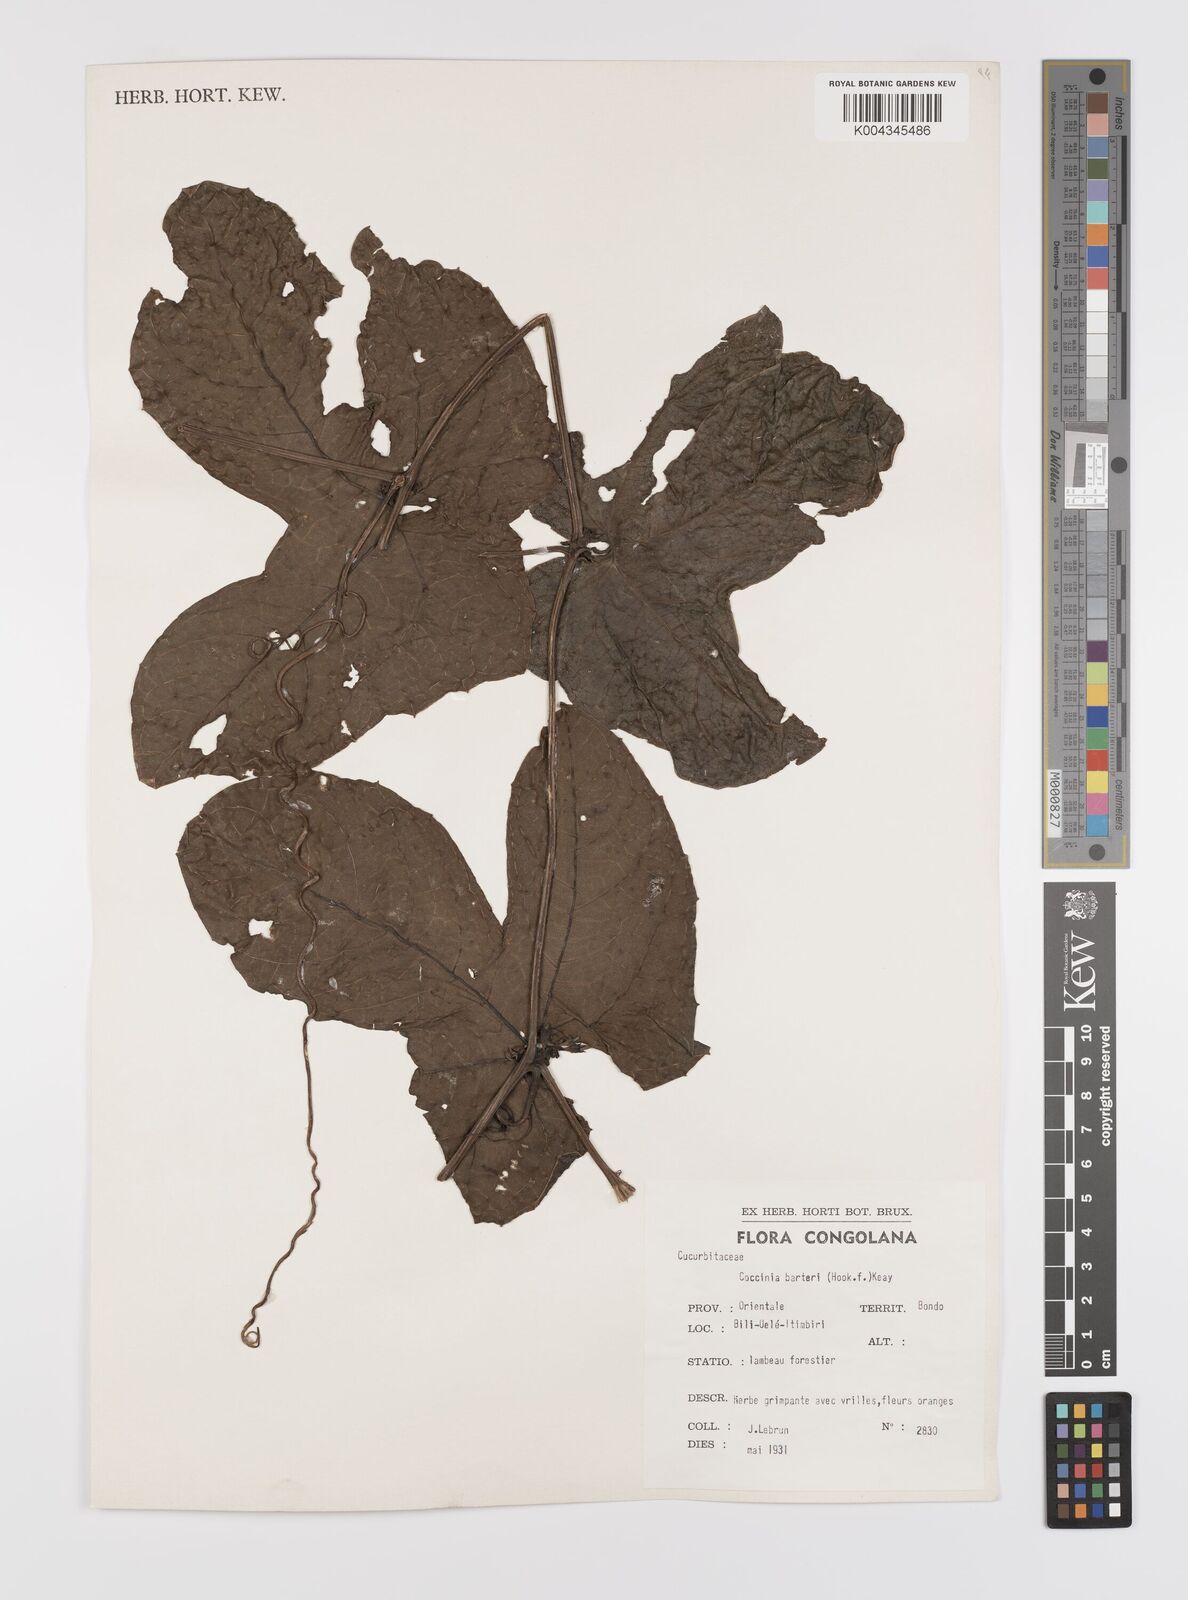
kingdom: Plantae
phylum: Tracheophyta
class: Magnoliopsida
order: Cucurbitales
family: Cucurbitaceae
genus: Coccinia
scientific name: Coccinia barteri
